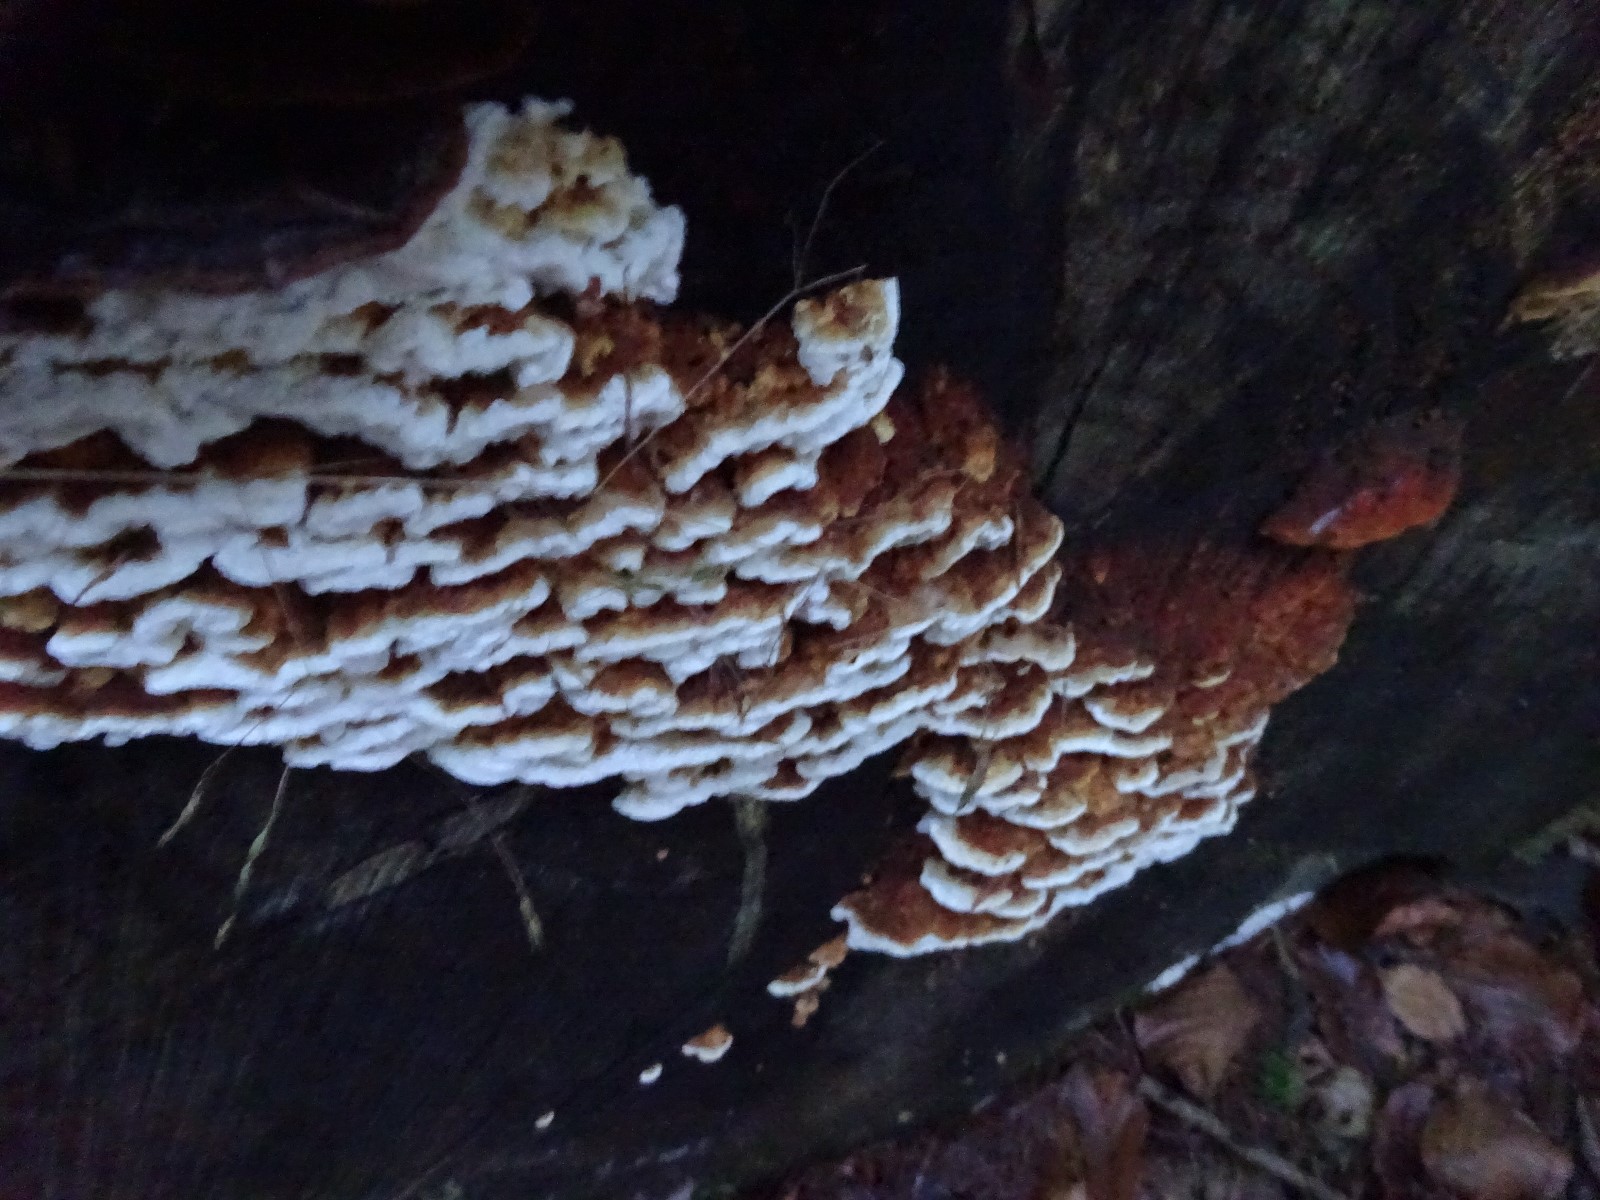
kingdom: Fungi
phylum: Basidiomycota
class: Agaricomycetes
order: Polyporales
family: Fomitopsidaceae
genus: Neoantrodia
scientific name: Neoantrodia serialis
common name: række-sejporesvamp
